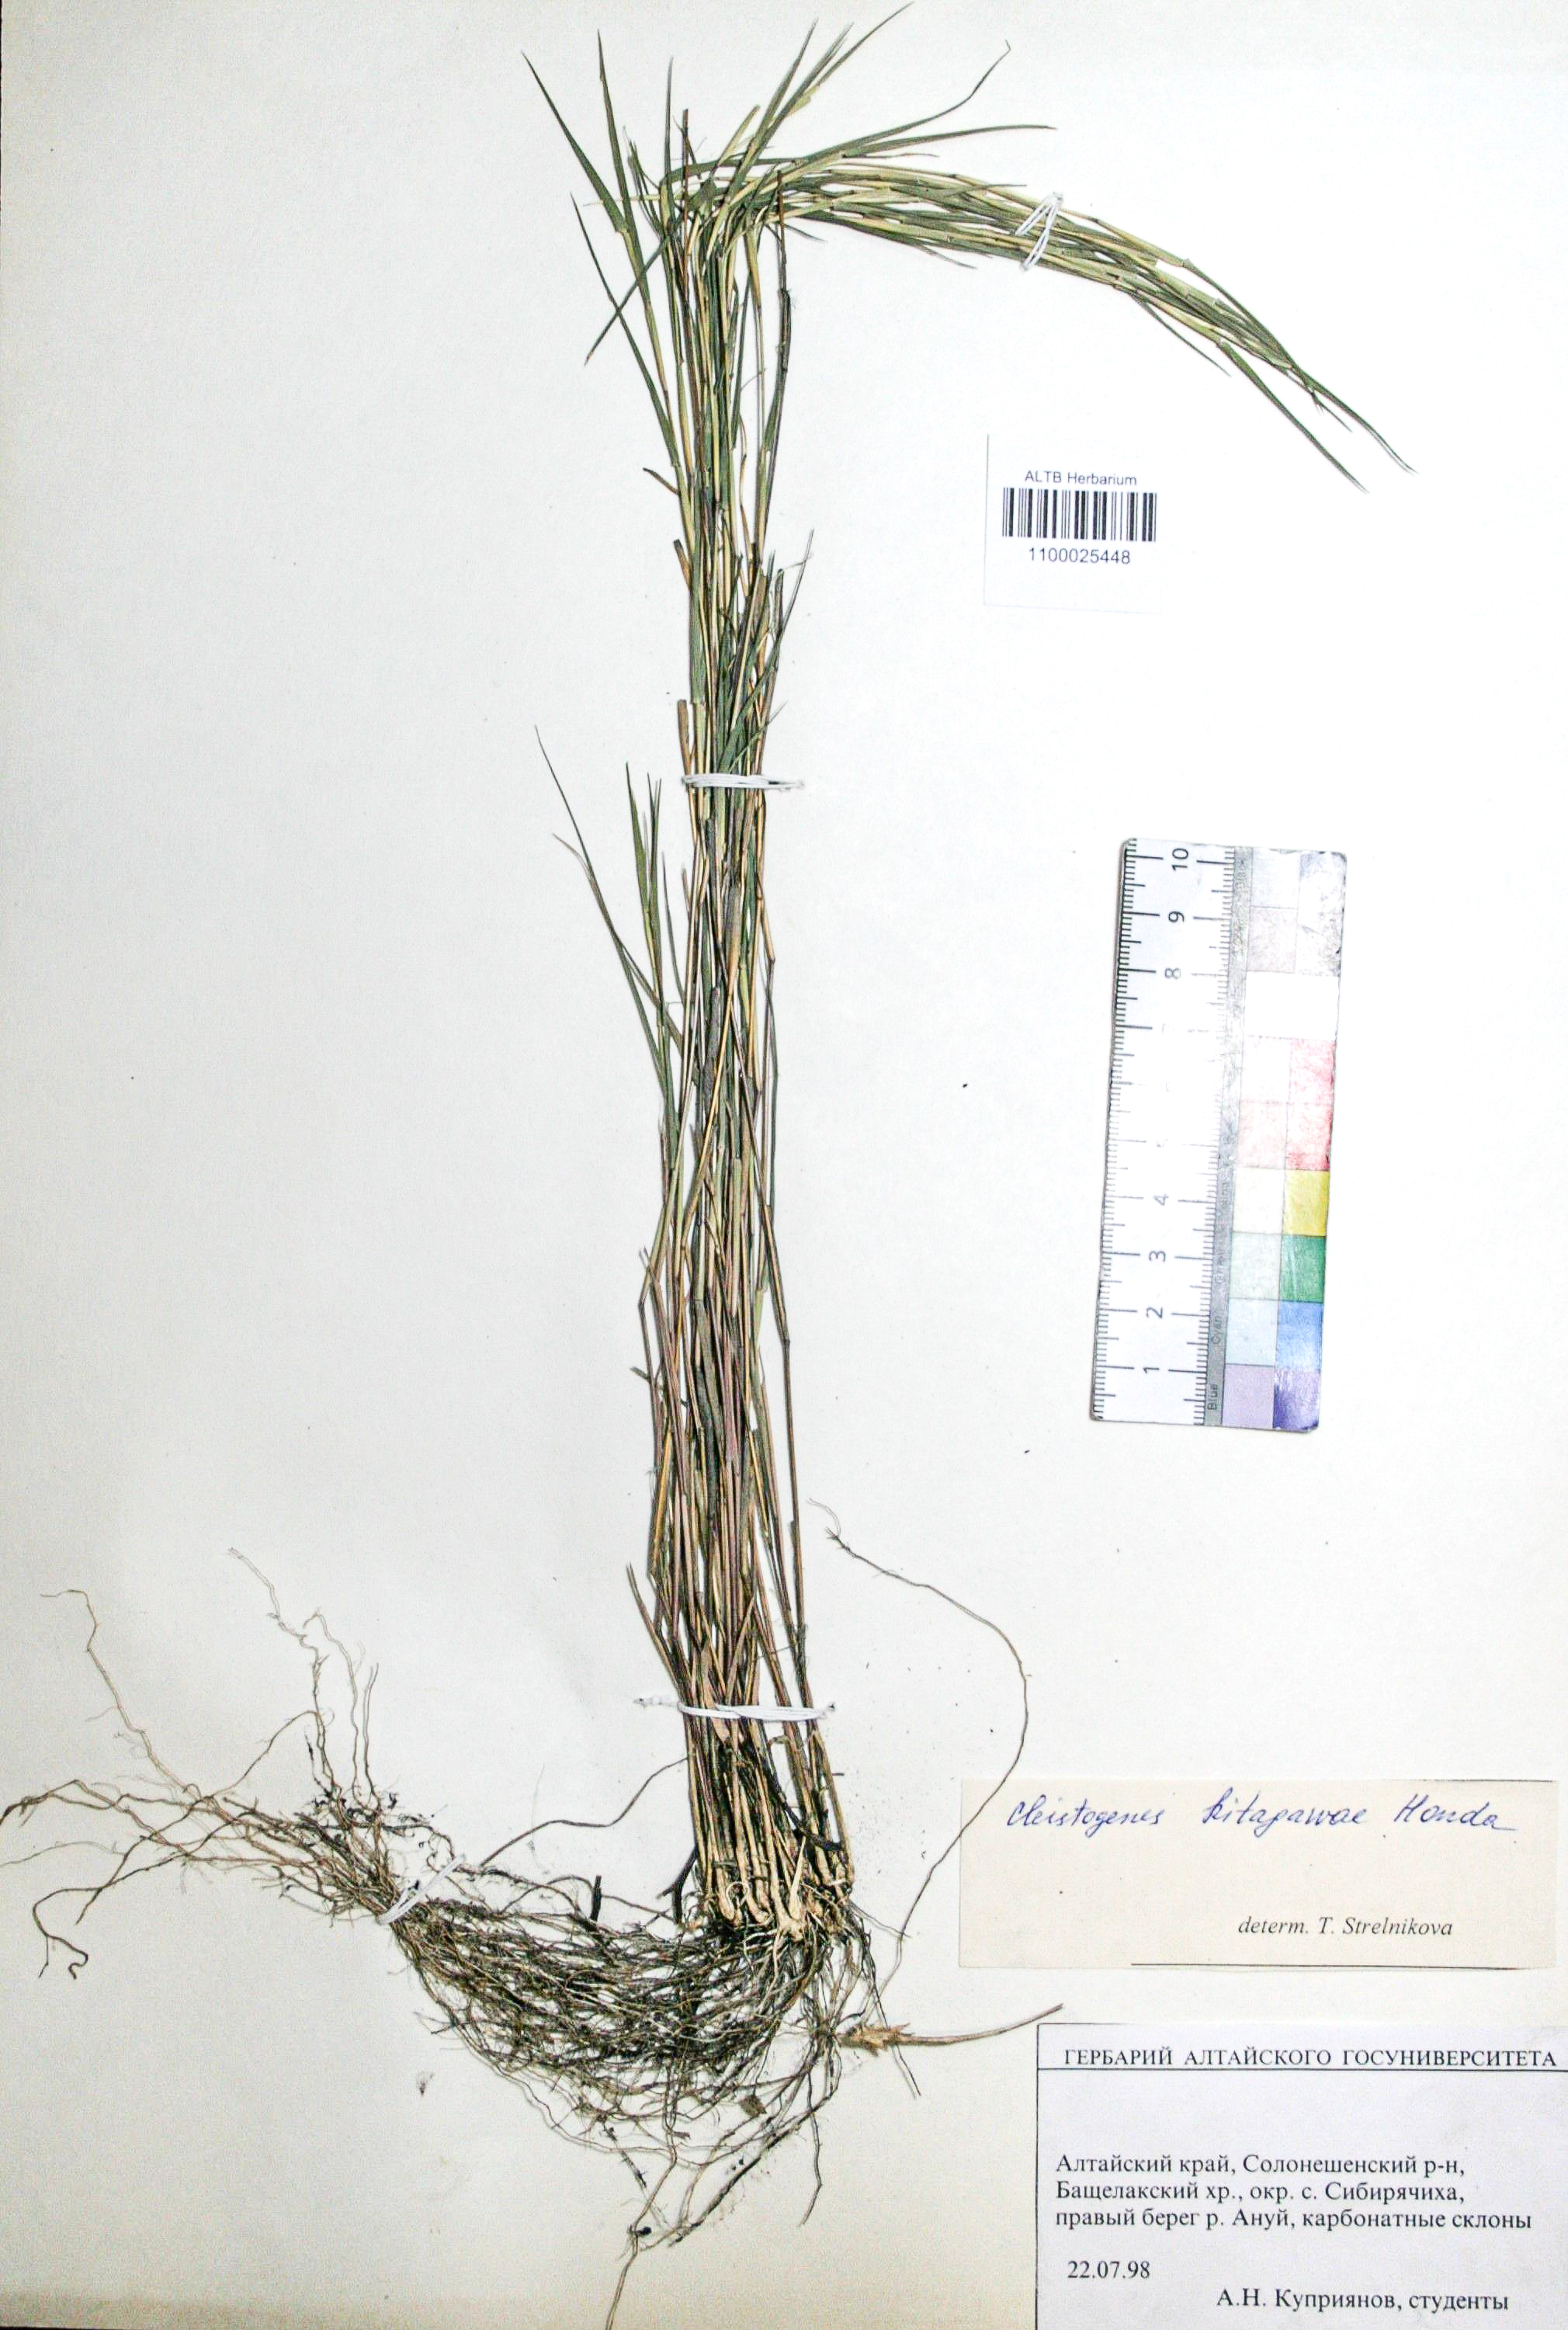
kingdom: Plantae
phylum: Tracheophyta
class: Liliopsida
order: Poales
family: Poaceae
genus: Cleistogenes
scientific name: Cleistogenes kitagawae
